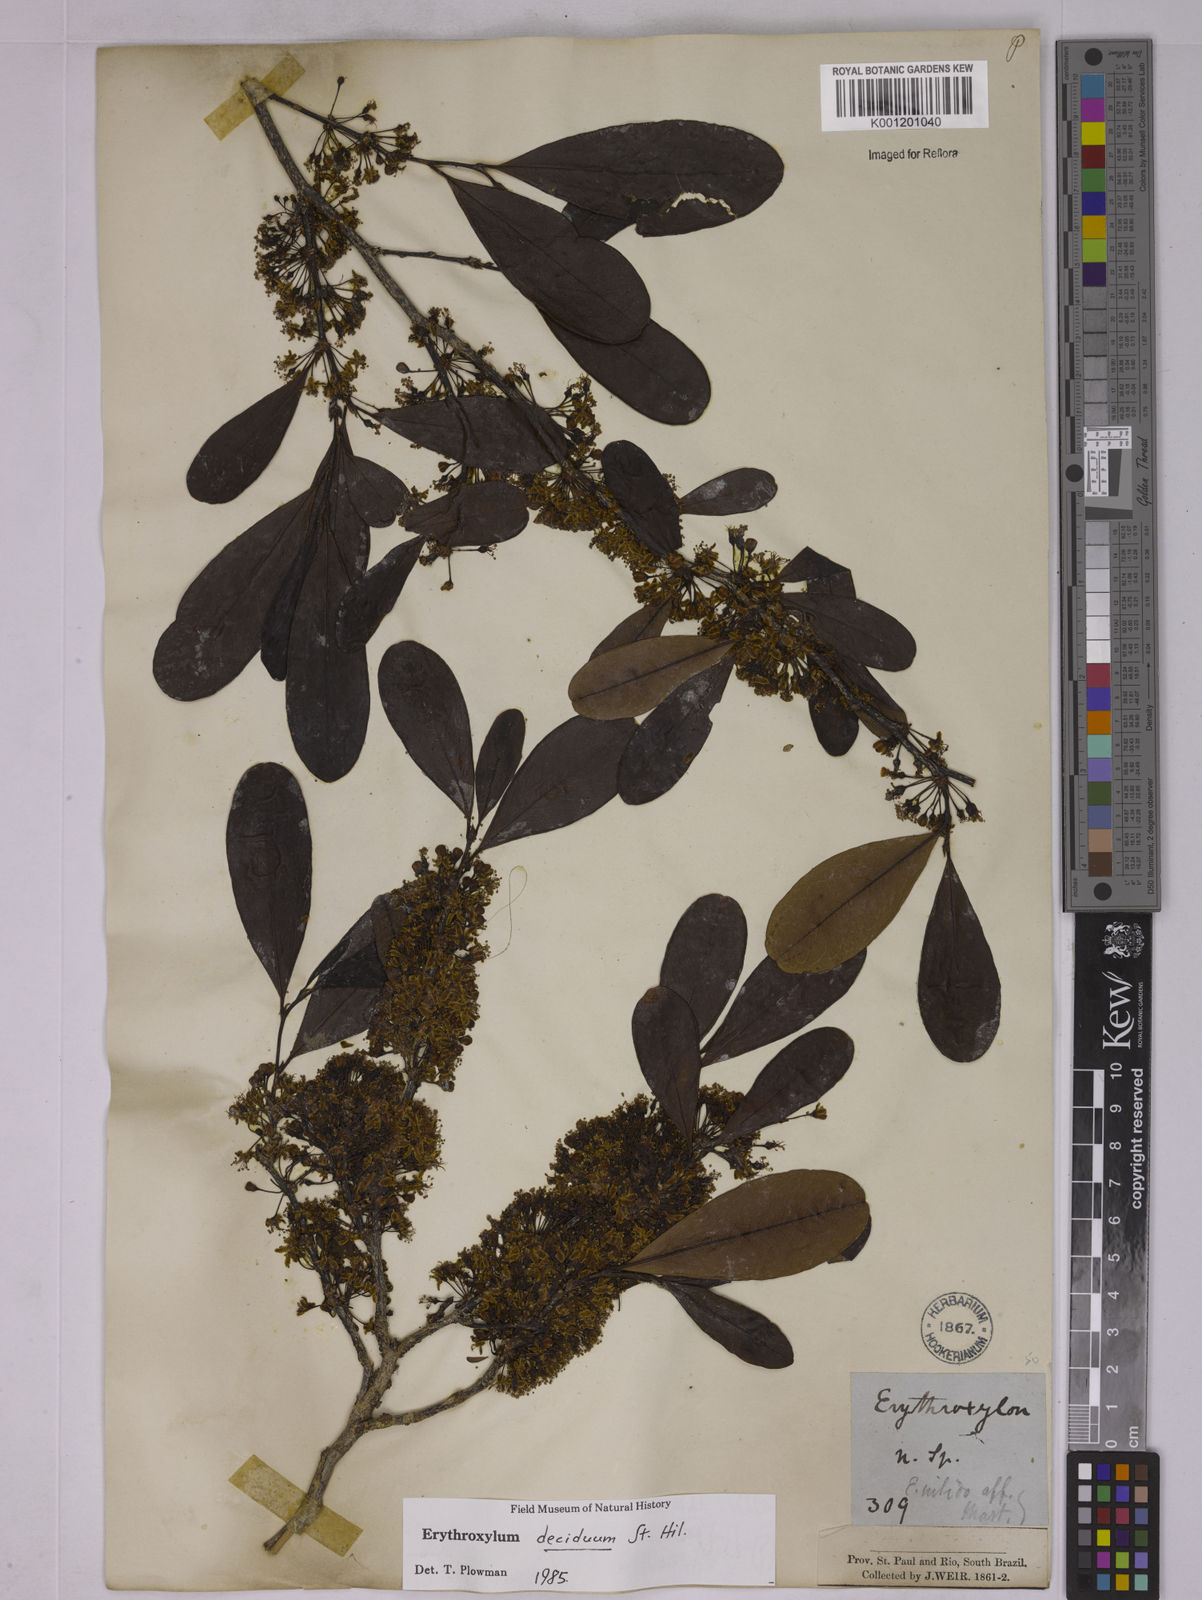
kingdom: Plantae
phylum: Tracheophyta
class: Magnoliopsida
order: Malpighiales
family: Erythroxylaceae
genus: Erythroxylum
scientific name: Erythroxylum deciduum
